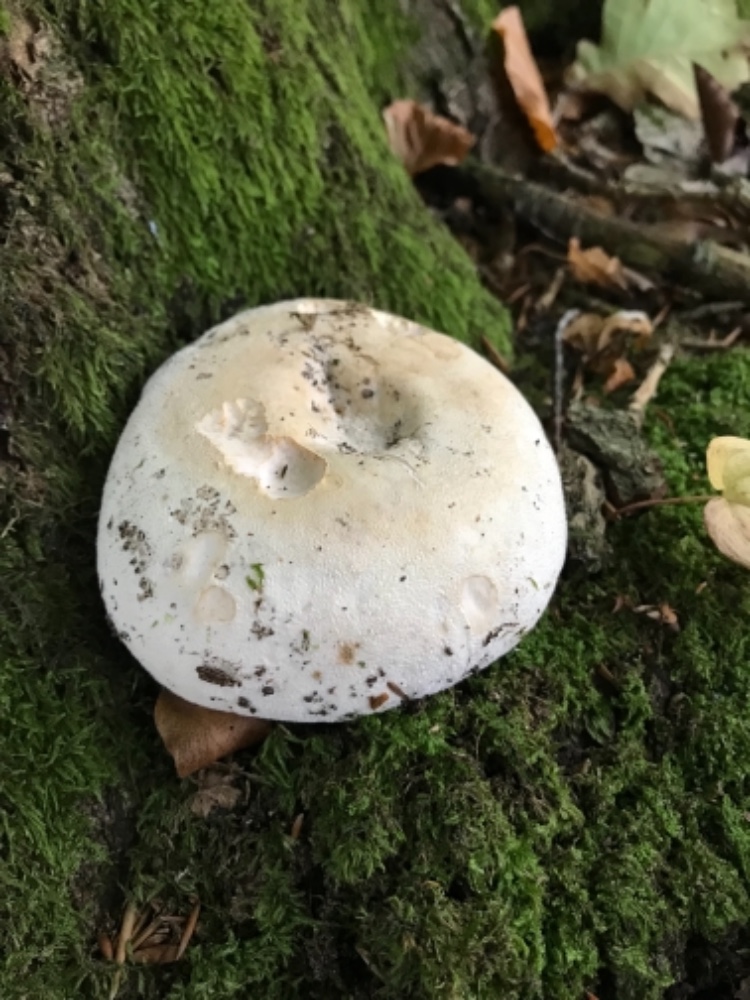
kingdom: Fungi
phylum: Basidiomycota
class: Agaricomycetes
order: Russulales
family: Russulaceae
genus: Lactifluus
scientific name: Lactifluus vellereus
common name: hvidfiltet mælkehat
